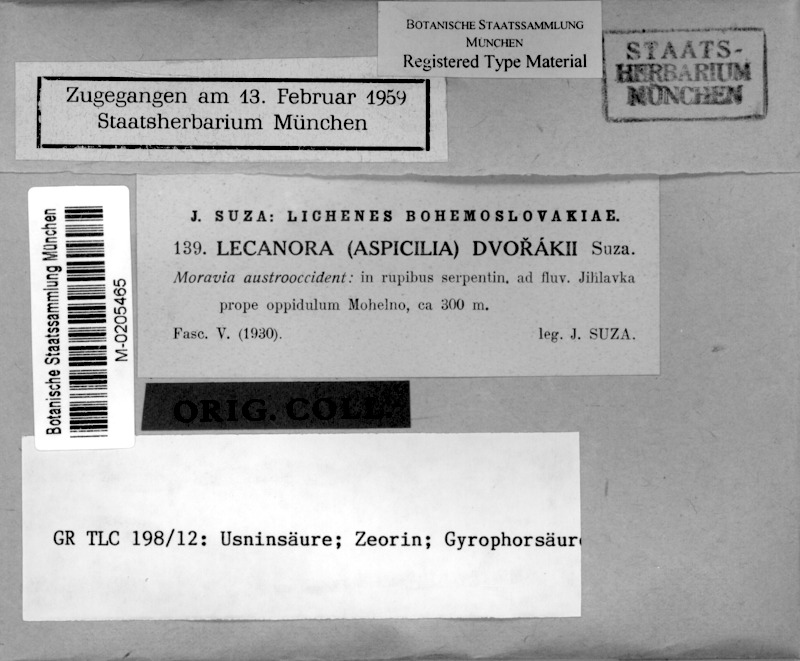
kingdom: Fungi
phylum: Ascomycota
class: Lecanoromycetes
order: Lecanorales
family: Lecanoraceae
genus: Lecanora
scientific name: Lecanora dvorakii
